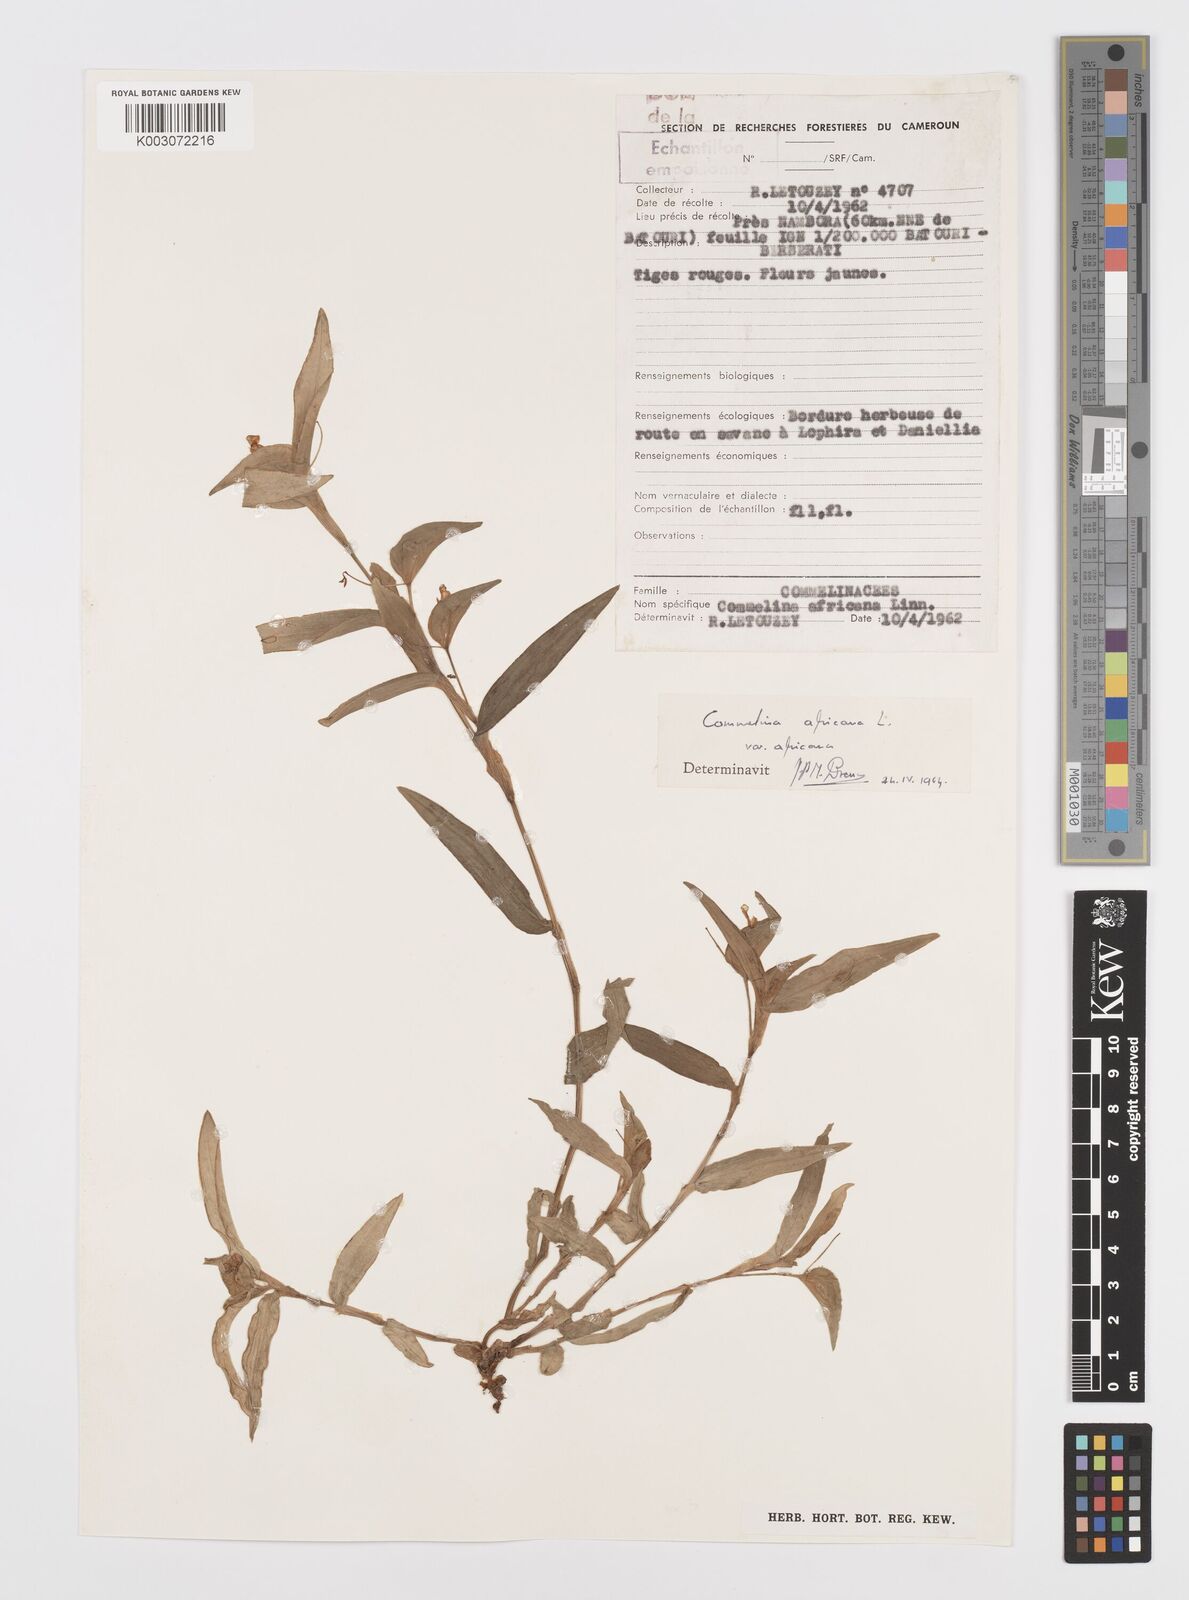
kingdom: Plantae
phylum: Tracheophyta
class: Liliopsida
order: Commelinales
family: Commelinaceae
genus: Commelina
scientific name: Commelina africana
